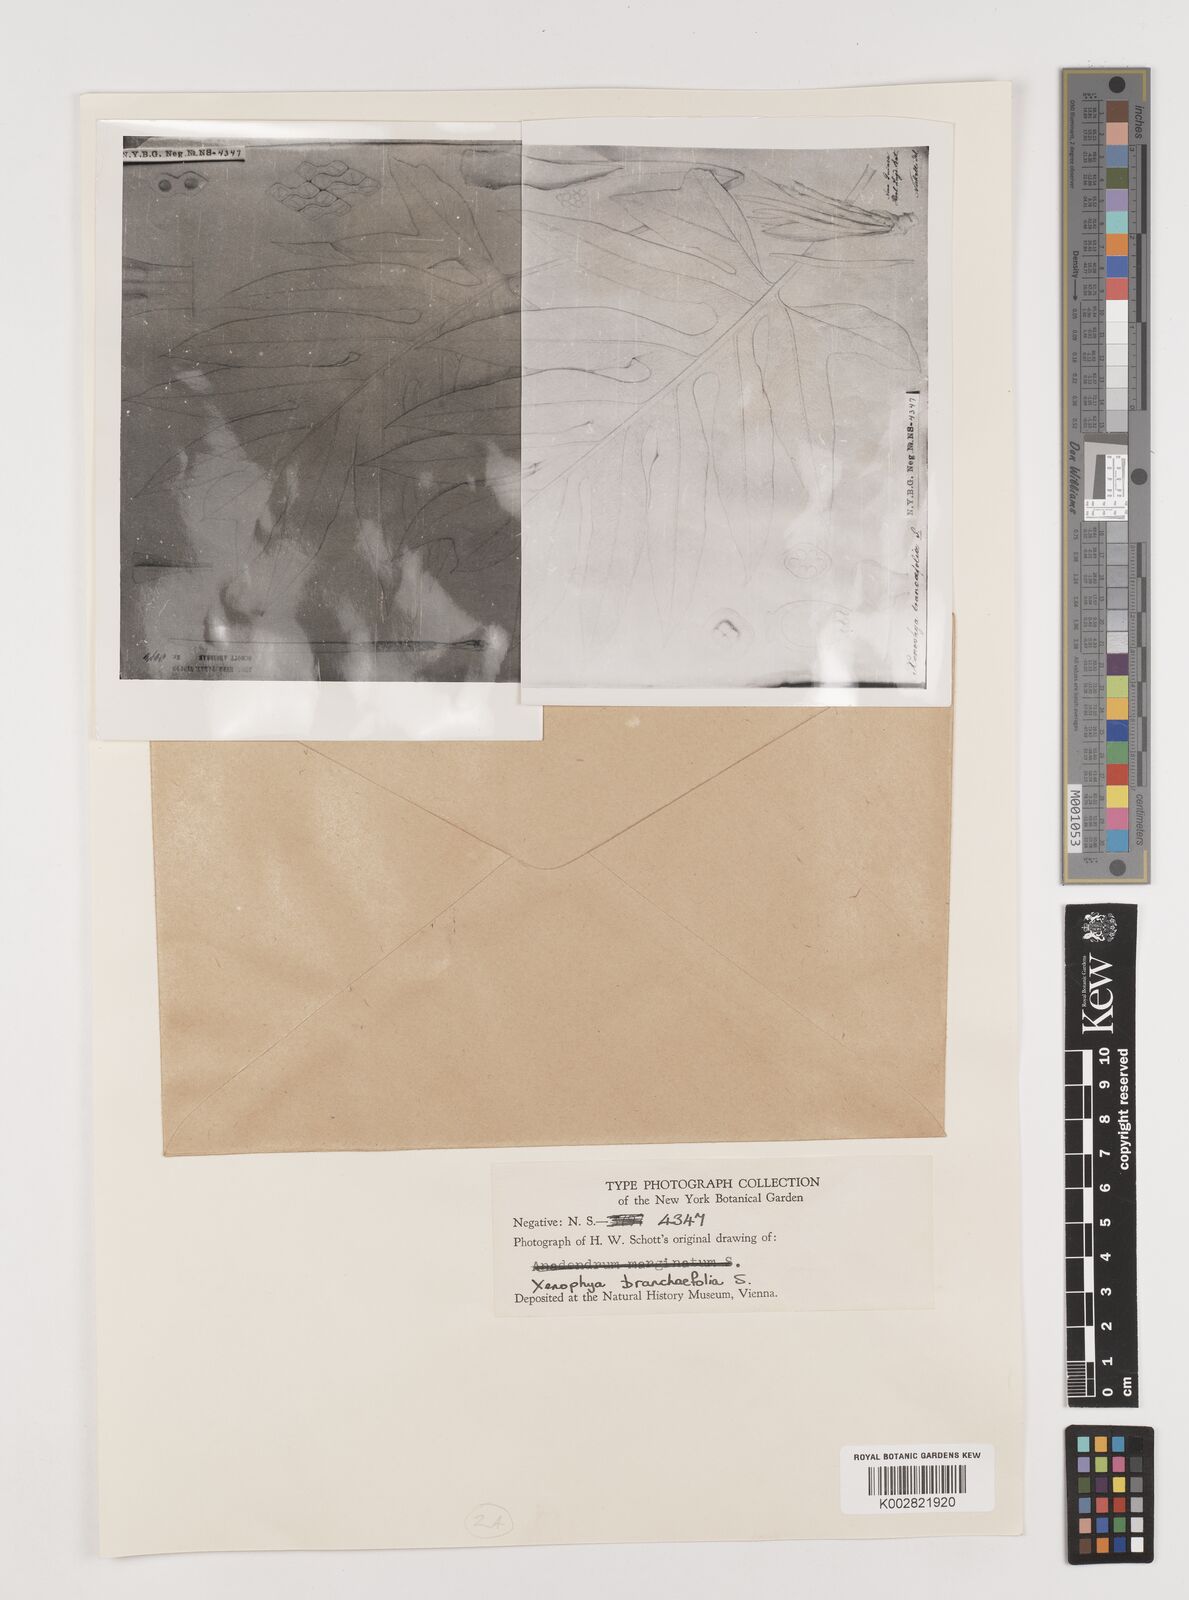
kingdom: Plantae
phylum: Tracheophyta
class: Liliopsida
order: Alismatales
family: Araceae
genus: Alocasia
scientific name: Alocasia brancifolia
